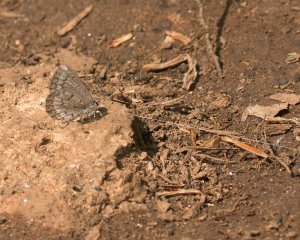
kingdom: Animalia
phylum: Arthropoda
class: Insecta
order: Lepidoptera
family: Lycaenidae
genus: Celastrina
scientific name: Celastrina lucia
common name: Northern Spring Azure
